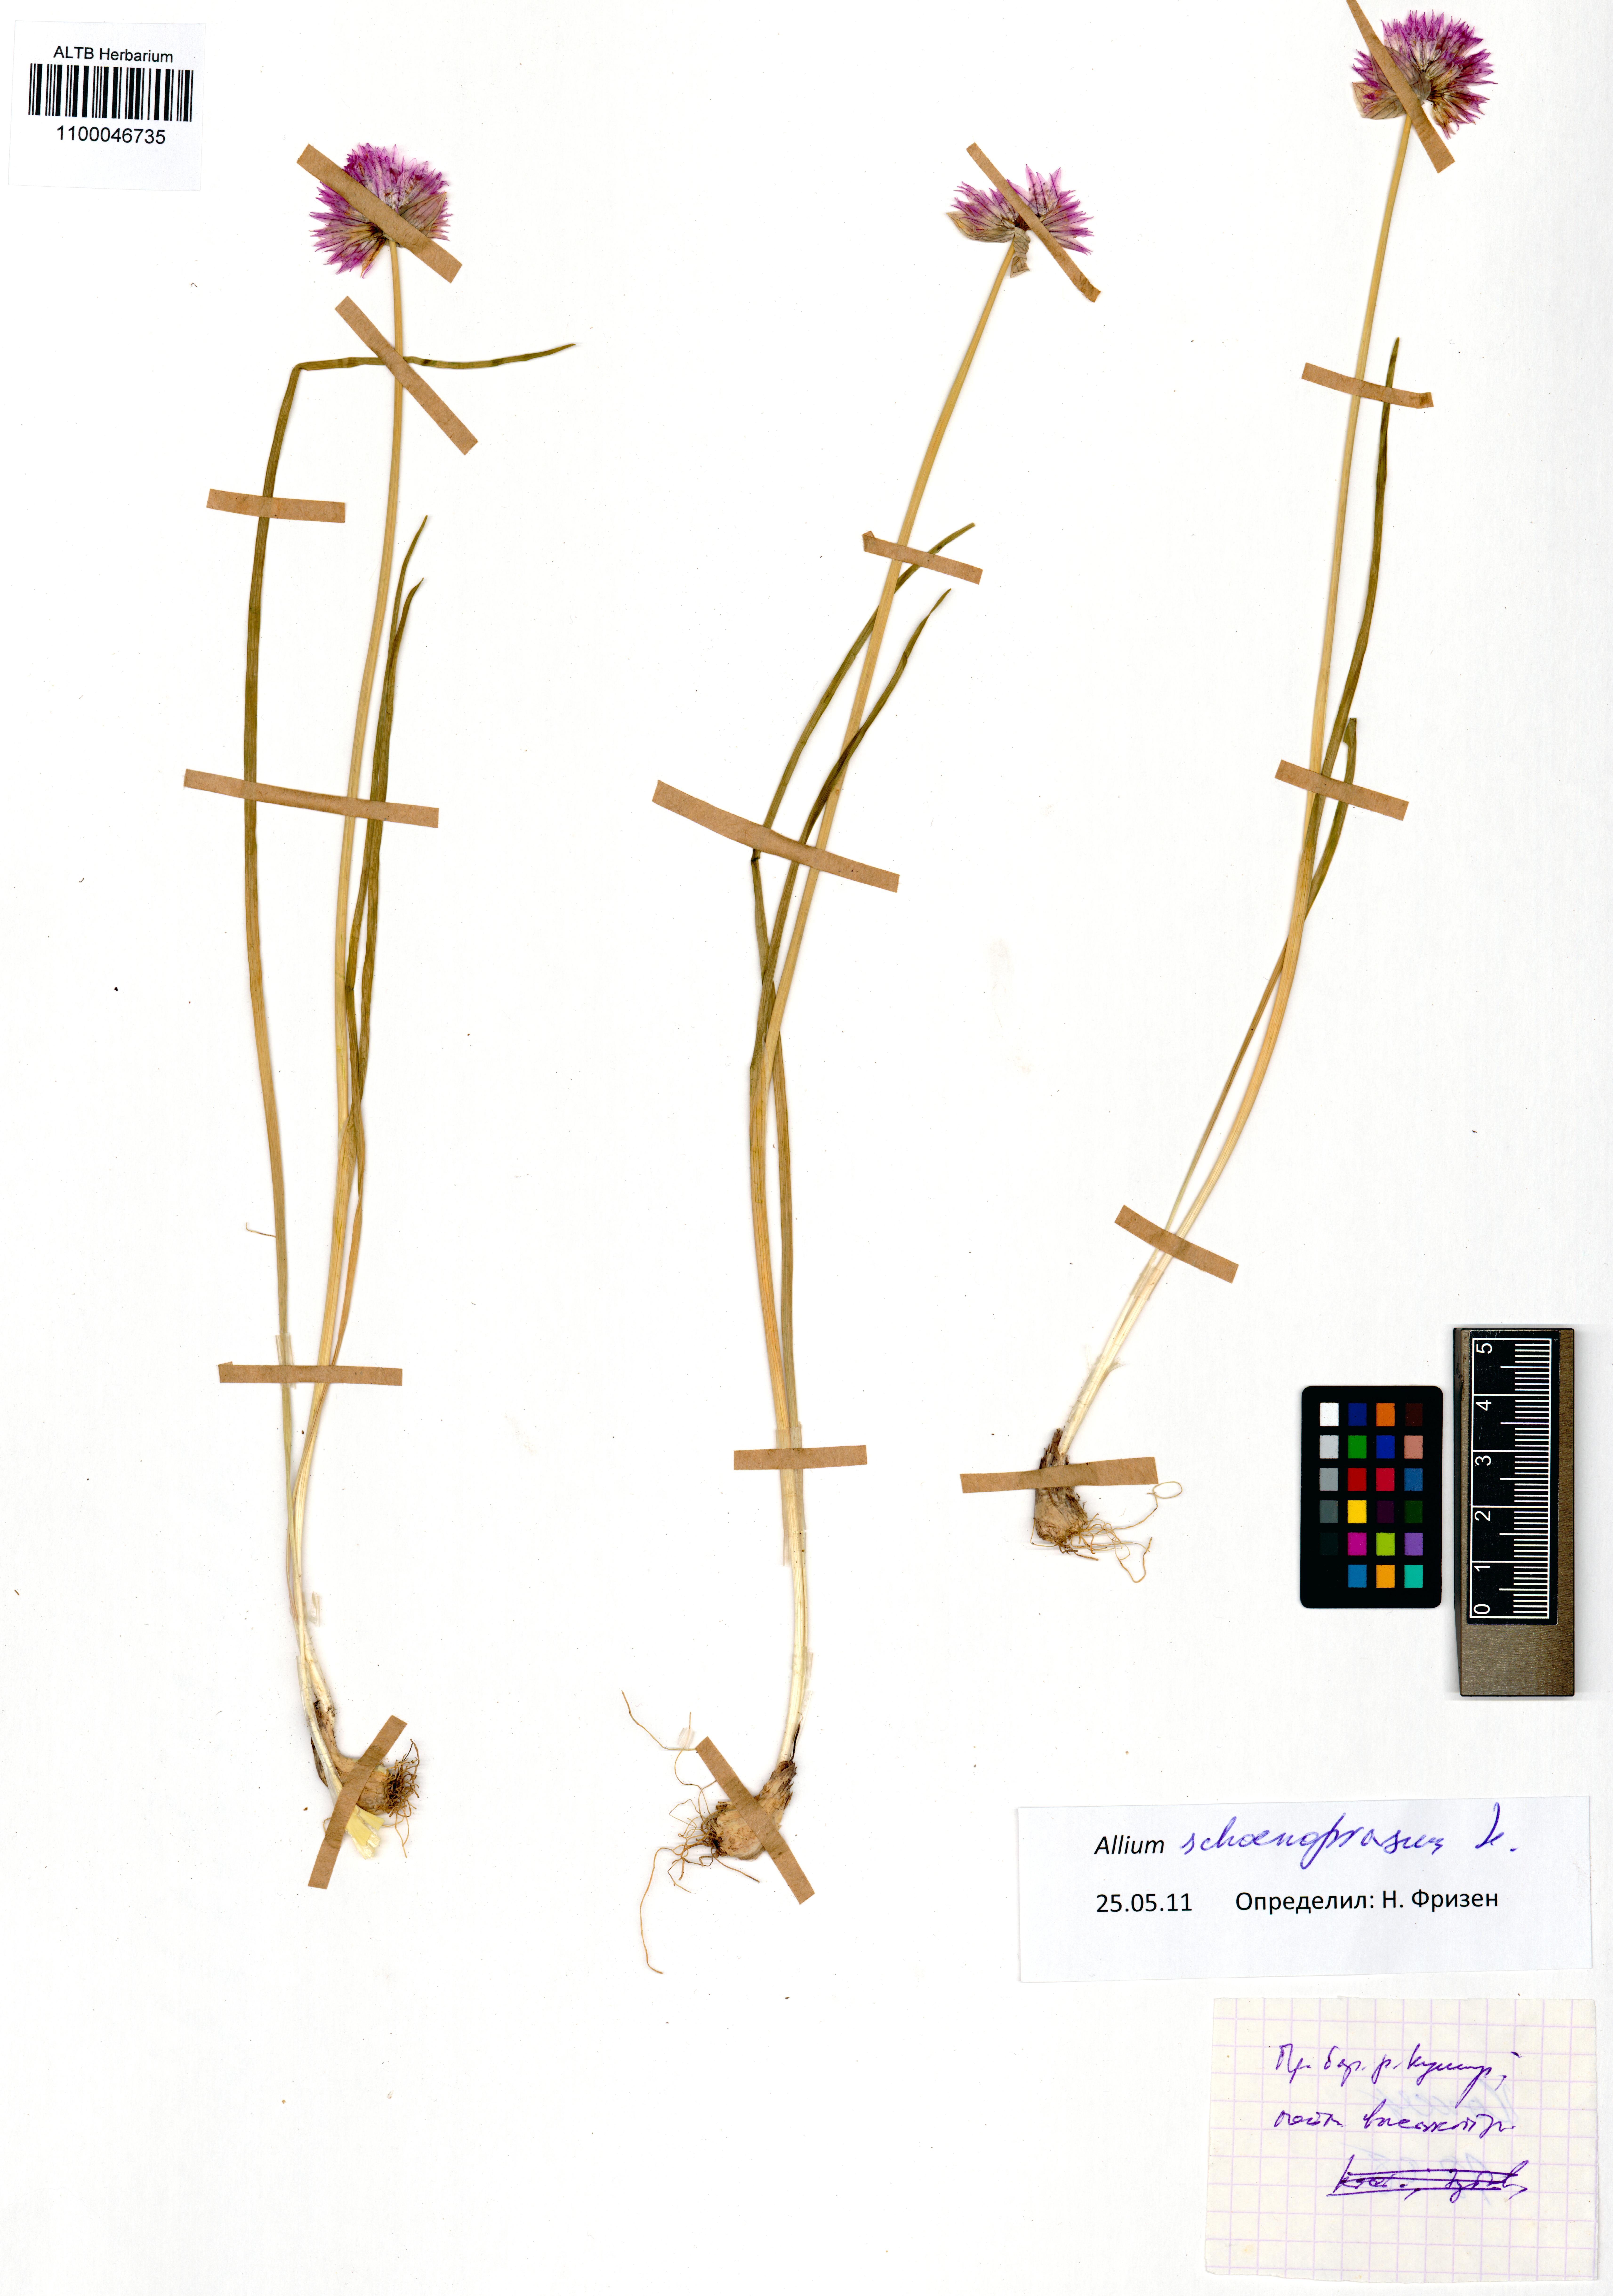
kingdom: Plantae
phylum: Tracheophyta
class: Liliopsida
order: Asparagales
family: Amaryllidaceae
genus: Allium
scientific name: Allium schoenoprasum
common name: Chives
